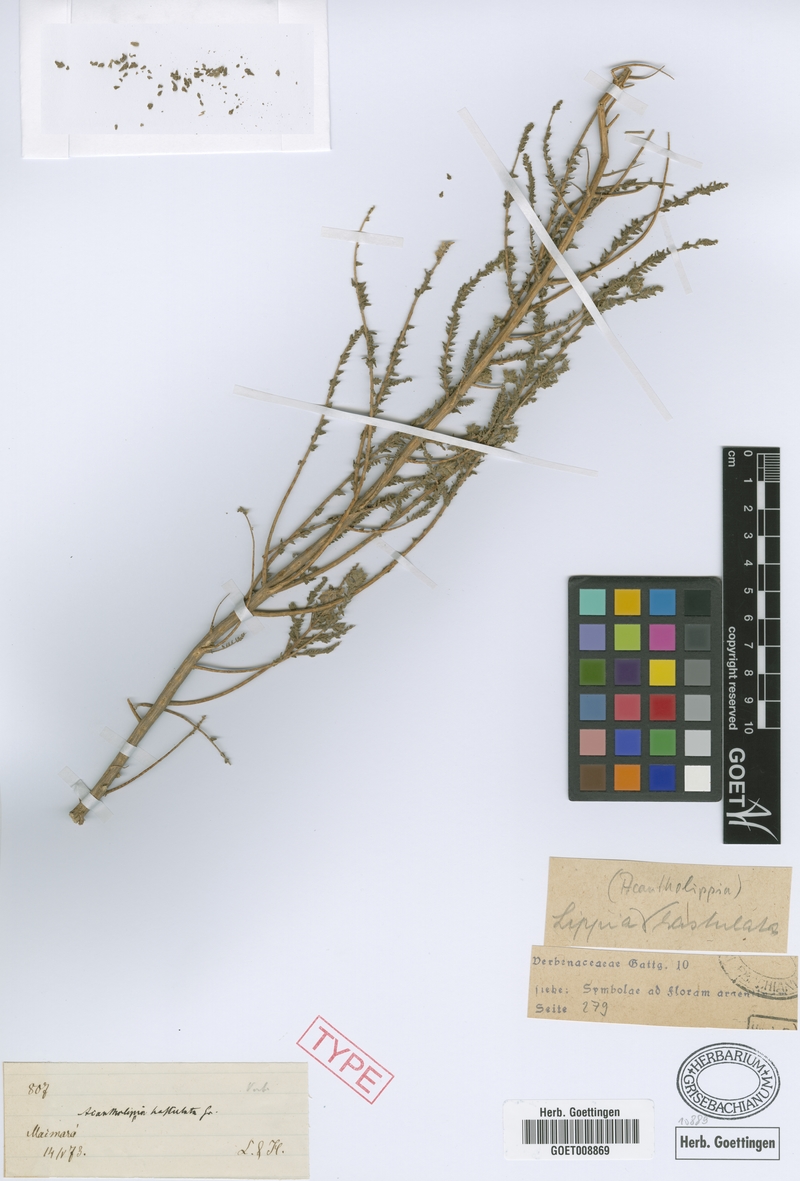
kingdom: Plantae
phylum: Tracheophyta
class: Magnoliopsida
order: Lamiales
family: Verbenaceae
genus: Aloysia
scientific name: Aloysia salsoloides
